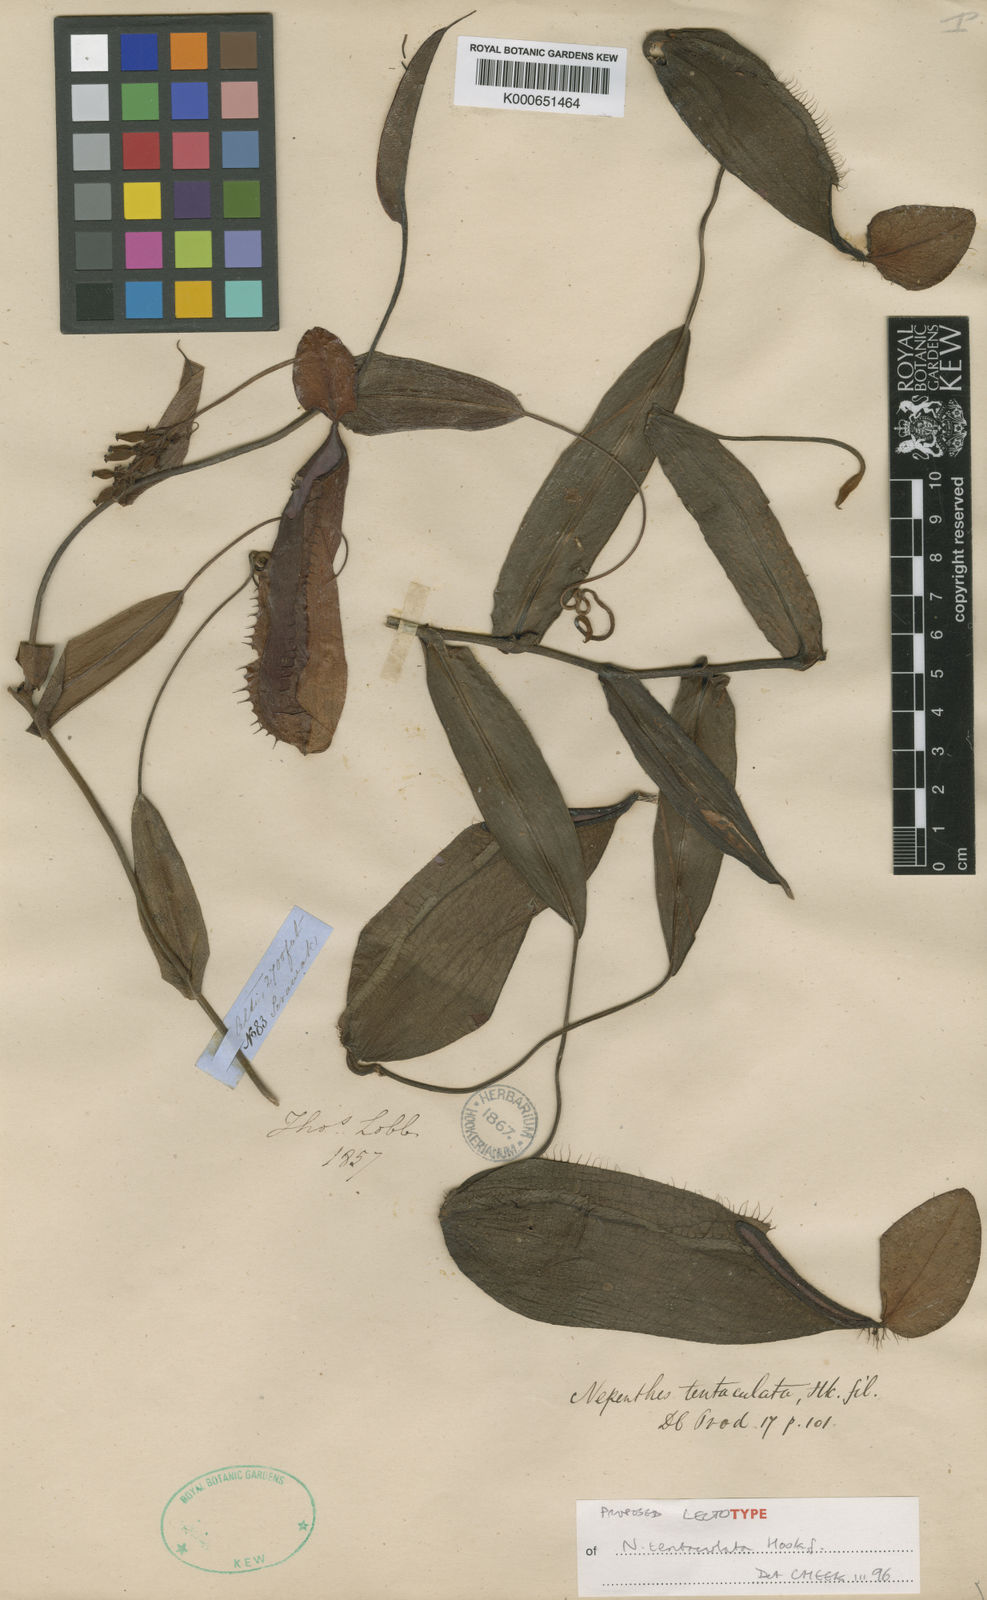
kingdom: Plantae
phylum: Tracheophyta
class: Magnoliopsida
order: Caryophyllales
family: Nepenthaceae
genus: Nepenthes
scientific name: Nepenthes tentaculata
